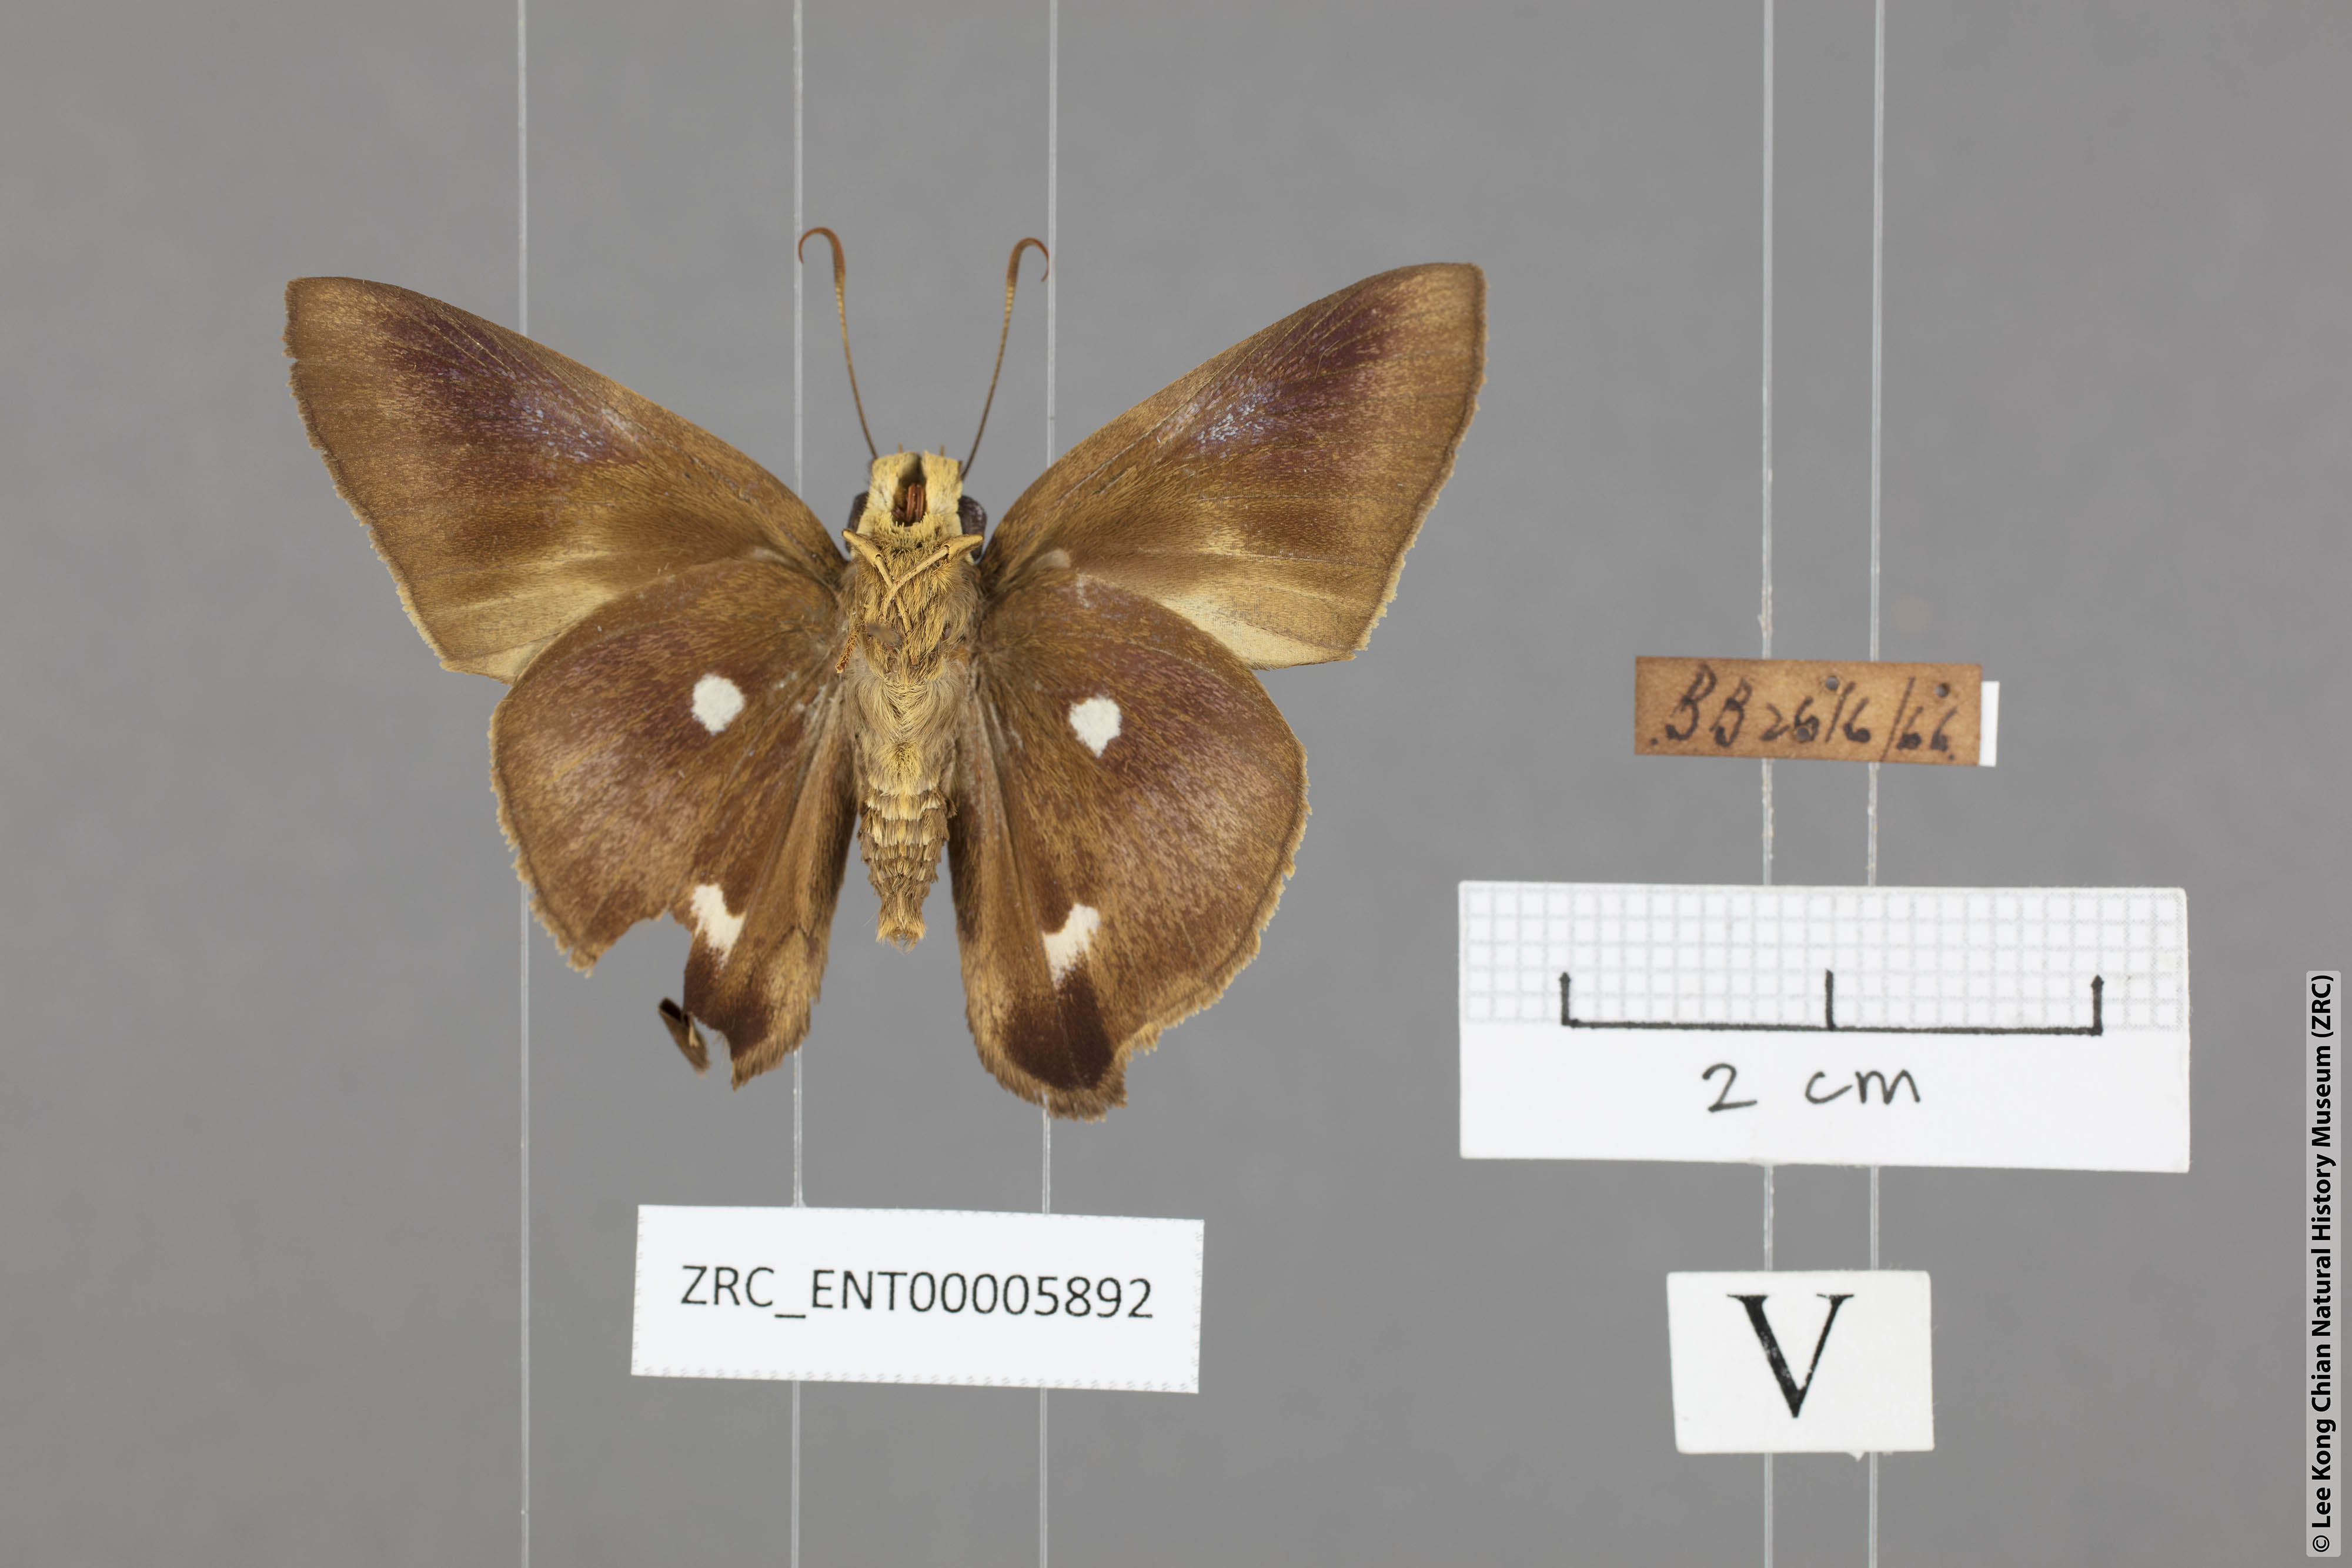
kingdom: Animalia
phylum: Arthropoda
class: Insecta
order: Lepidoptera
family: Hesperiidae
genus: Hasora
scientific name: Hasora quadripunctata
